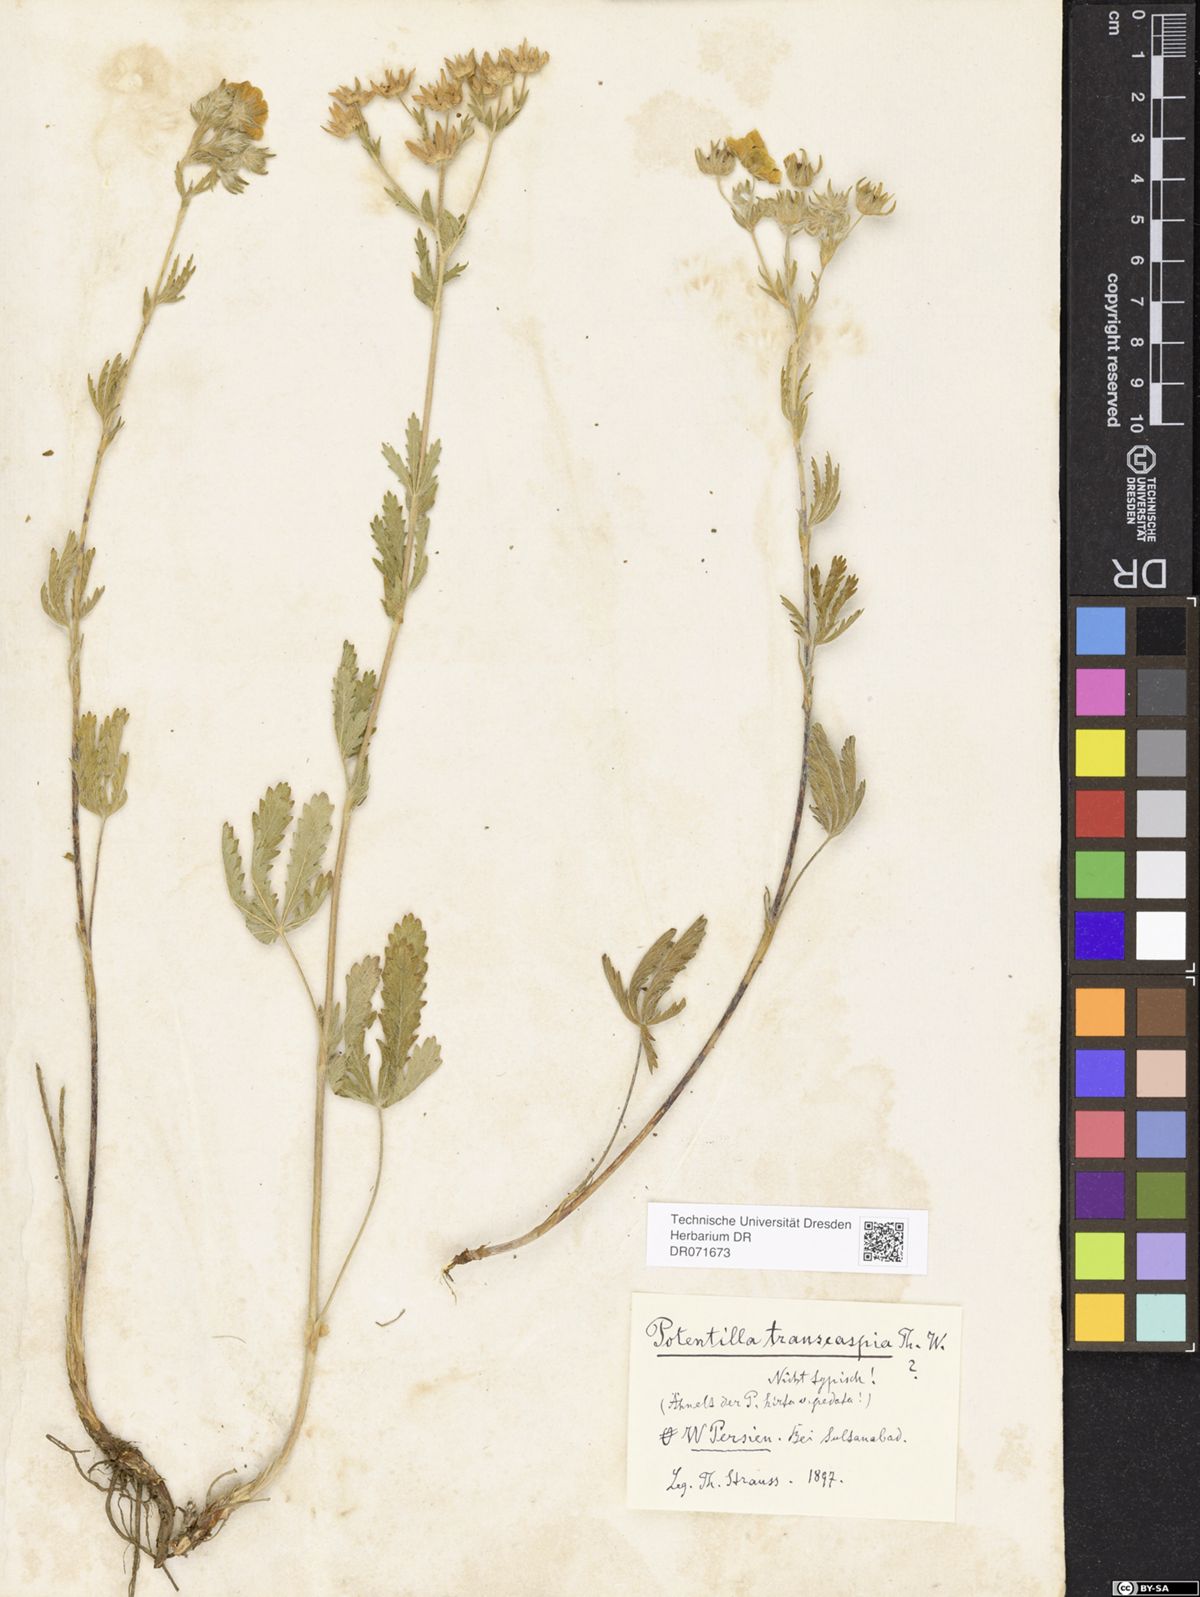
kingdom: Plantae
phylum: Tracheophyta
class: Magnoliopsida
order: Rosales
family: Rosaceae
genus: Potentilla
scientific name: Potentilla pedata
